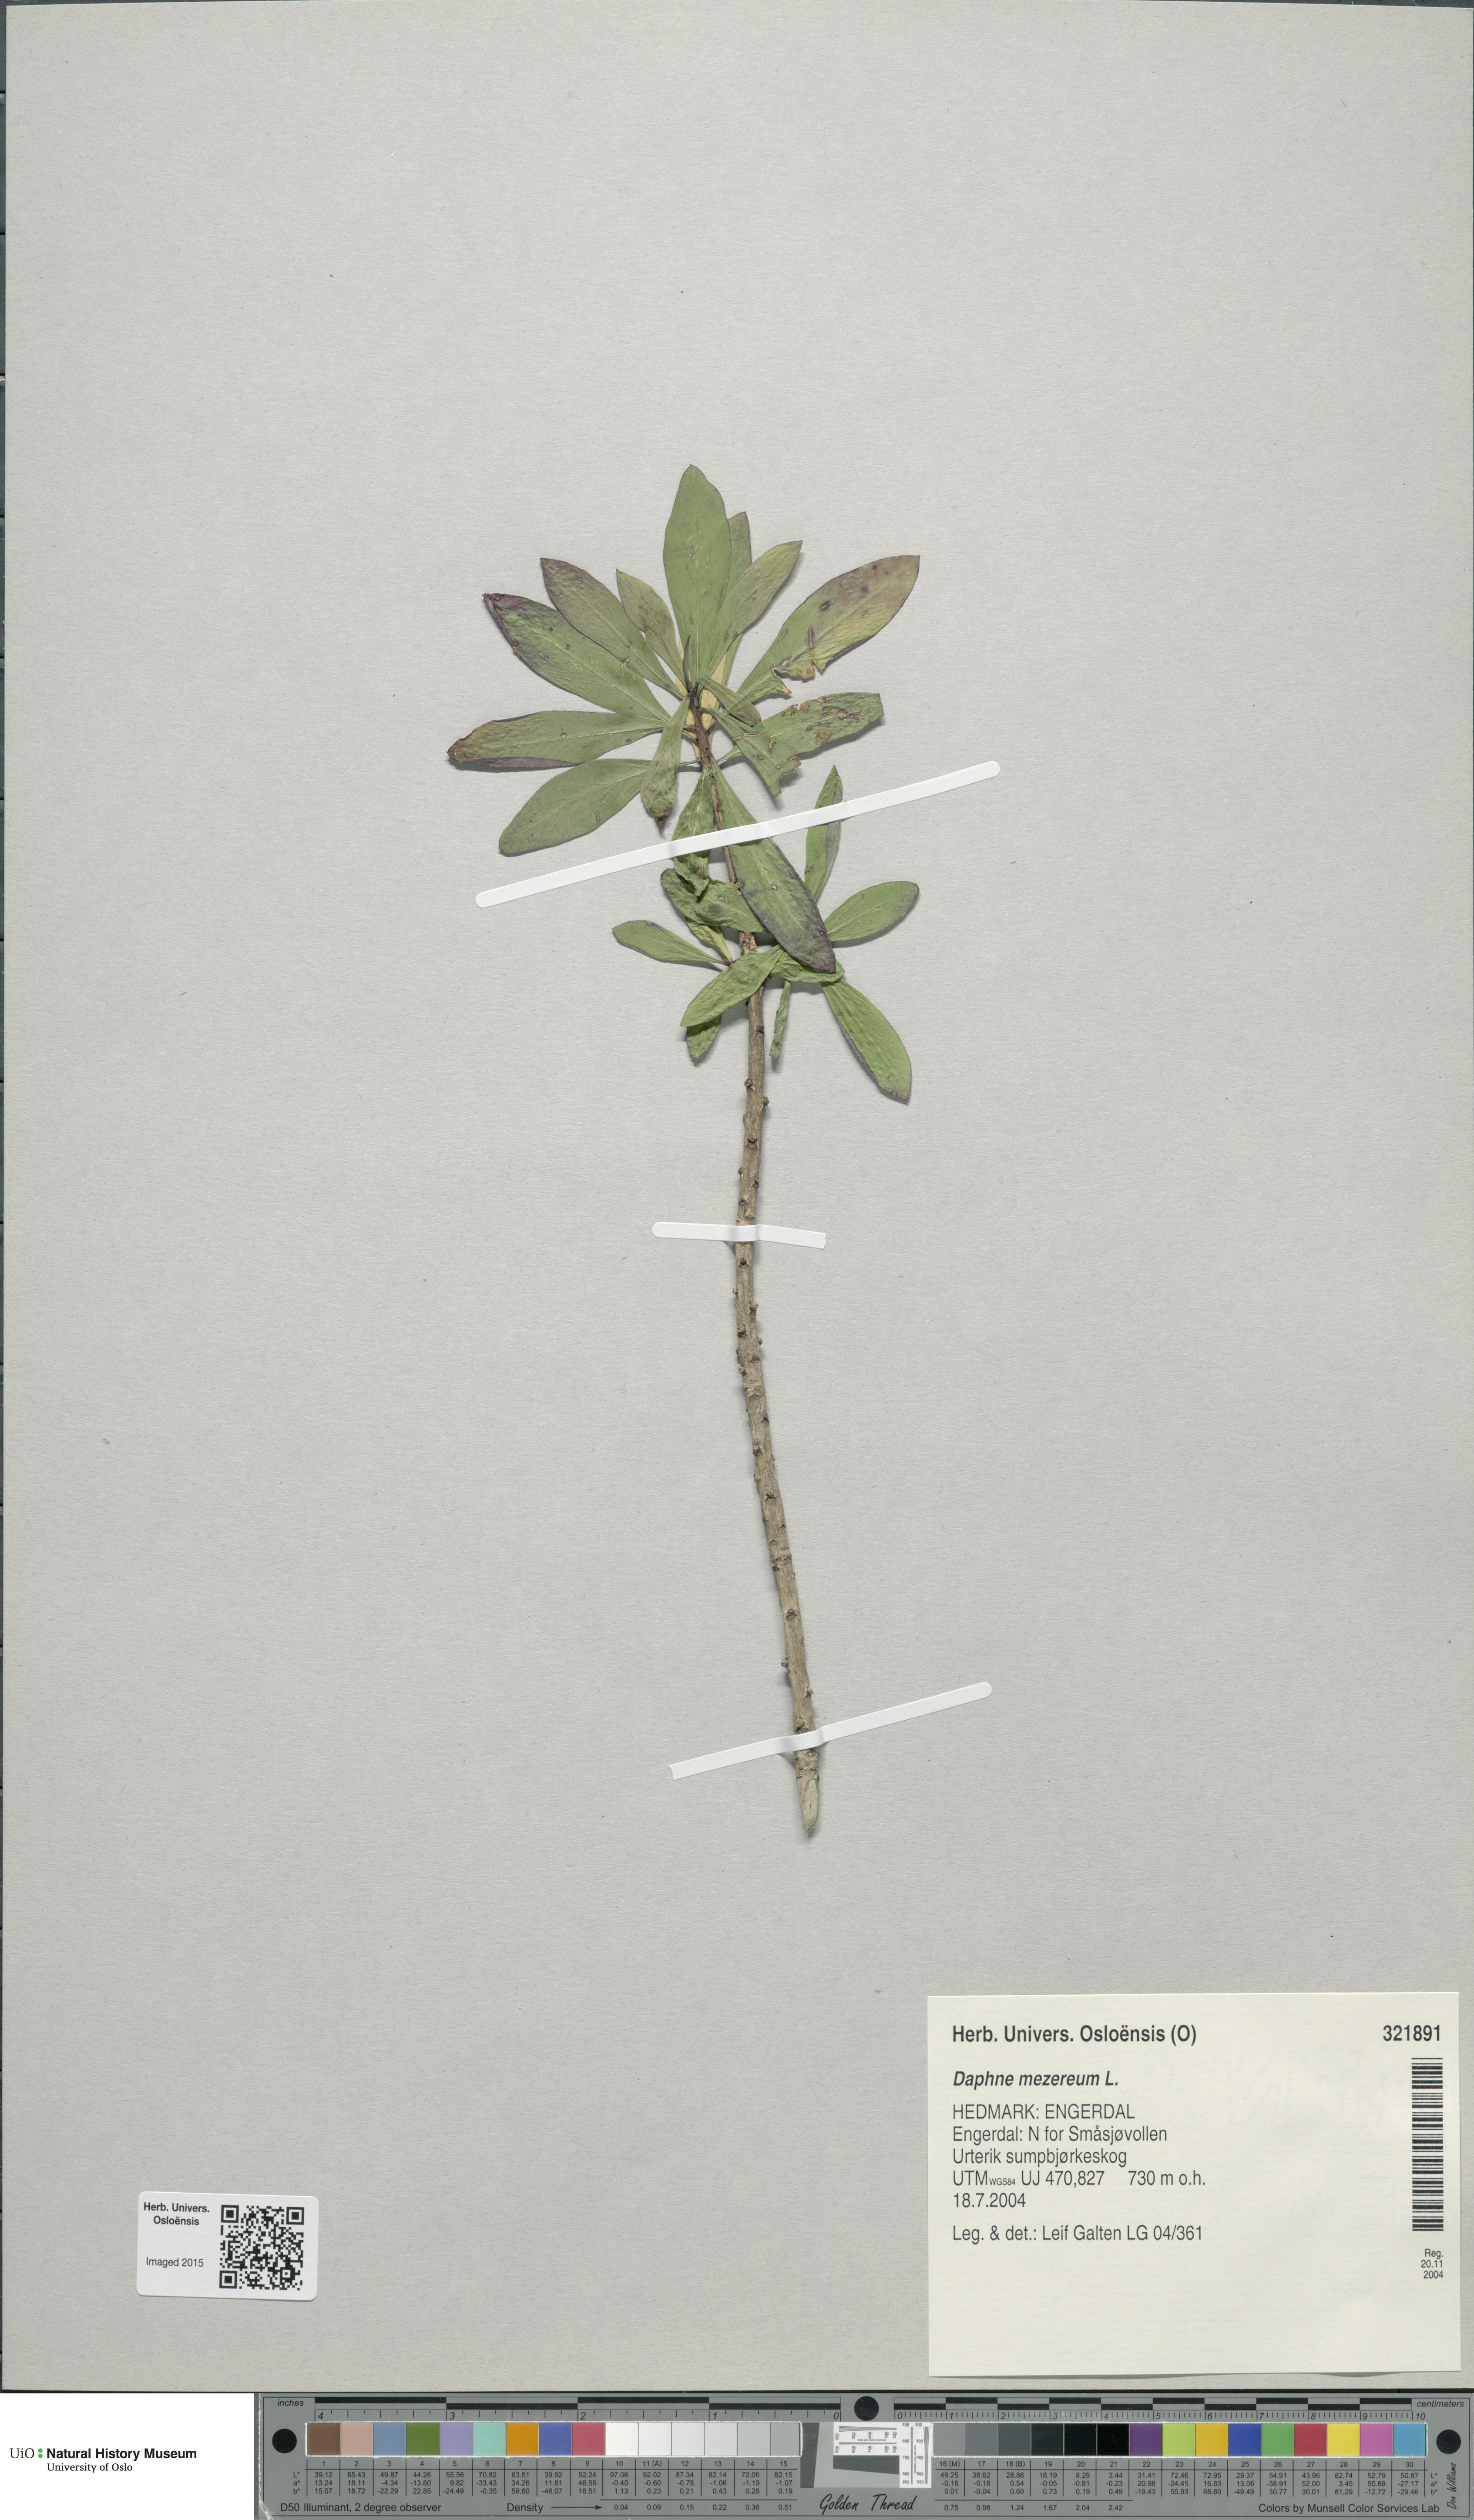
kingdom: Plantae
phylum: Tracheophyta
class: Magnoliopsida
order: Malvales
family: Thymelaeaceae
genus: Daphne
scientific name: Daphne mezereum
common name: Mezereon
